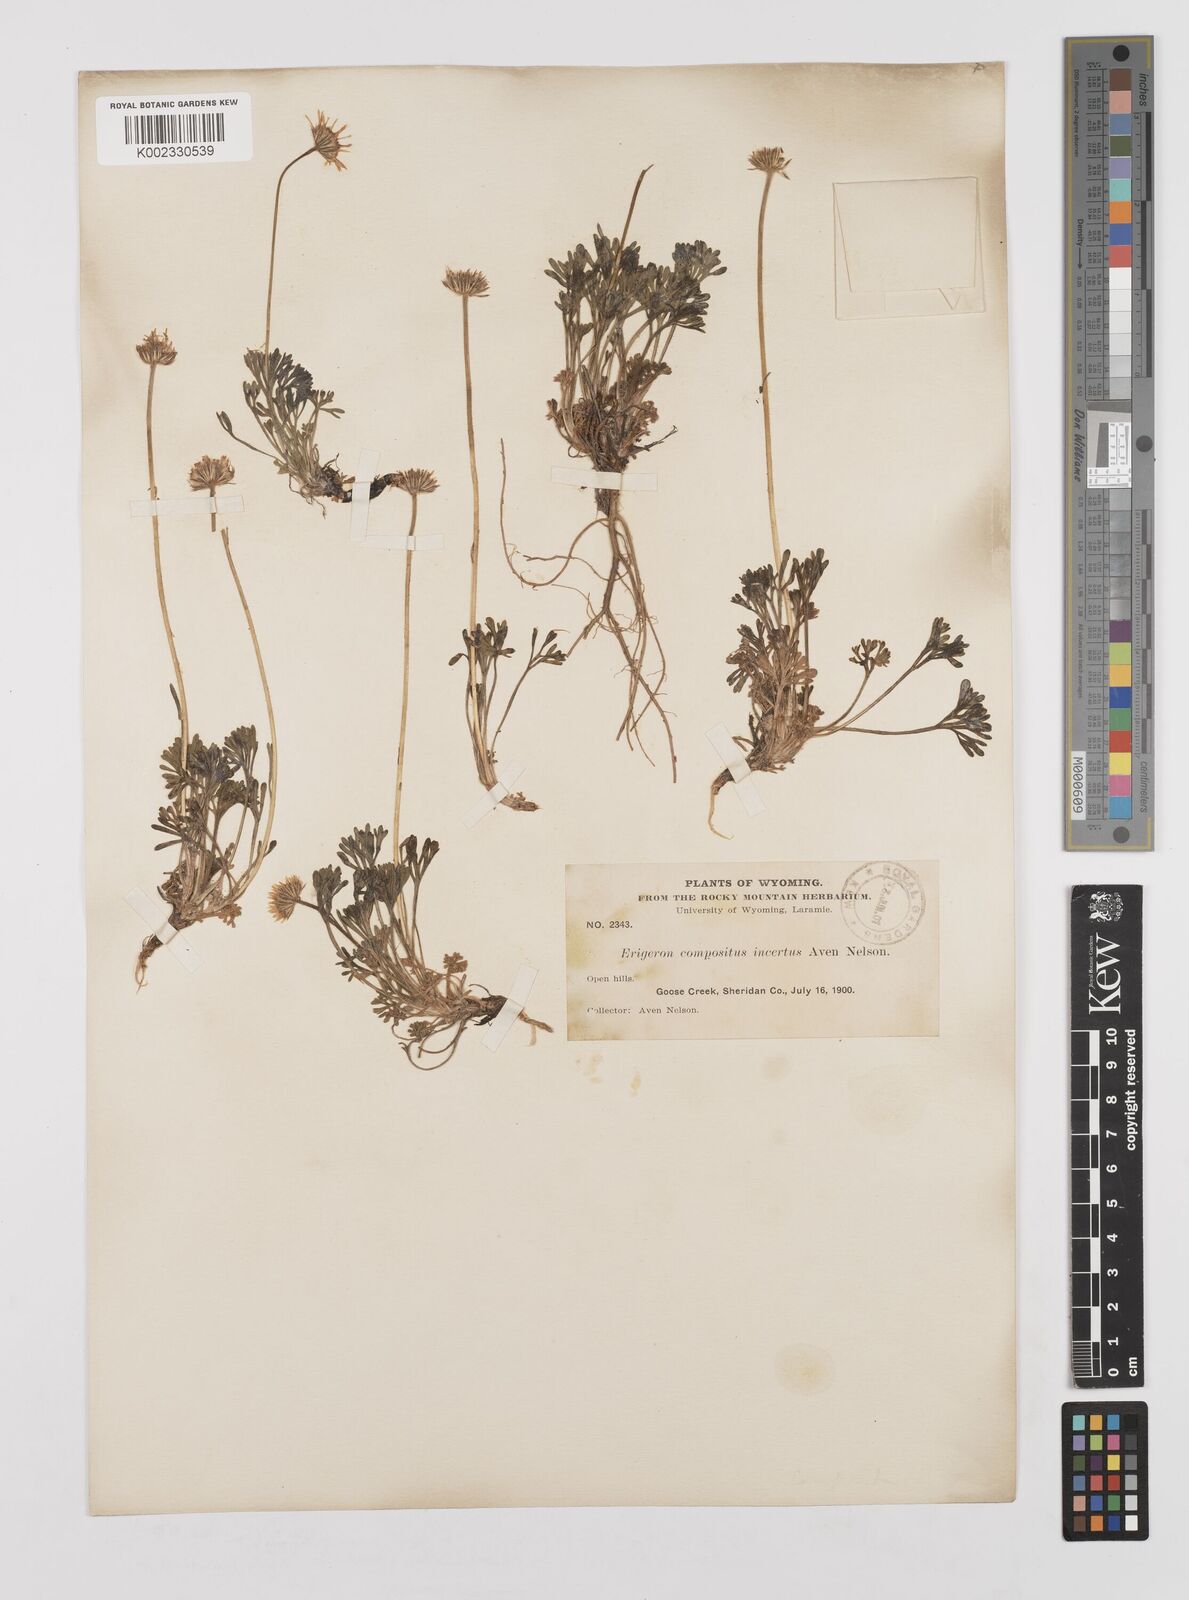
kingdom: Plantae
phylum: Tracheophyta
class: Magnoliopsida
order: Asterales
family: Asteraceae
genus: Erigeron
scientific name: Erigeron compositus
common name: Dwarf mountain fleabane
